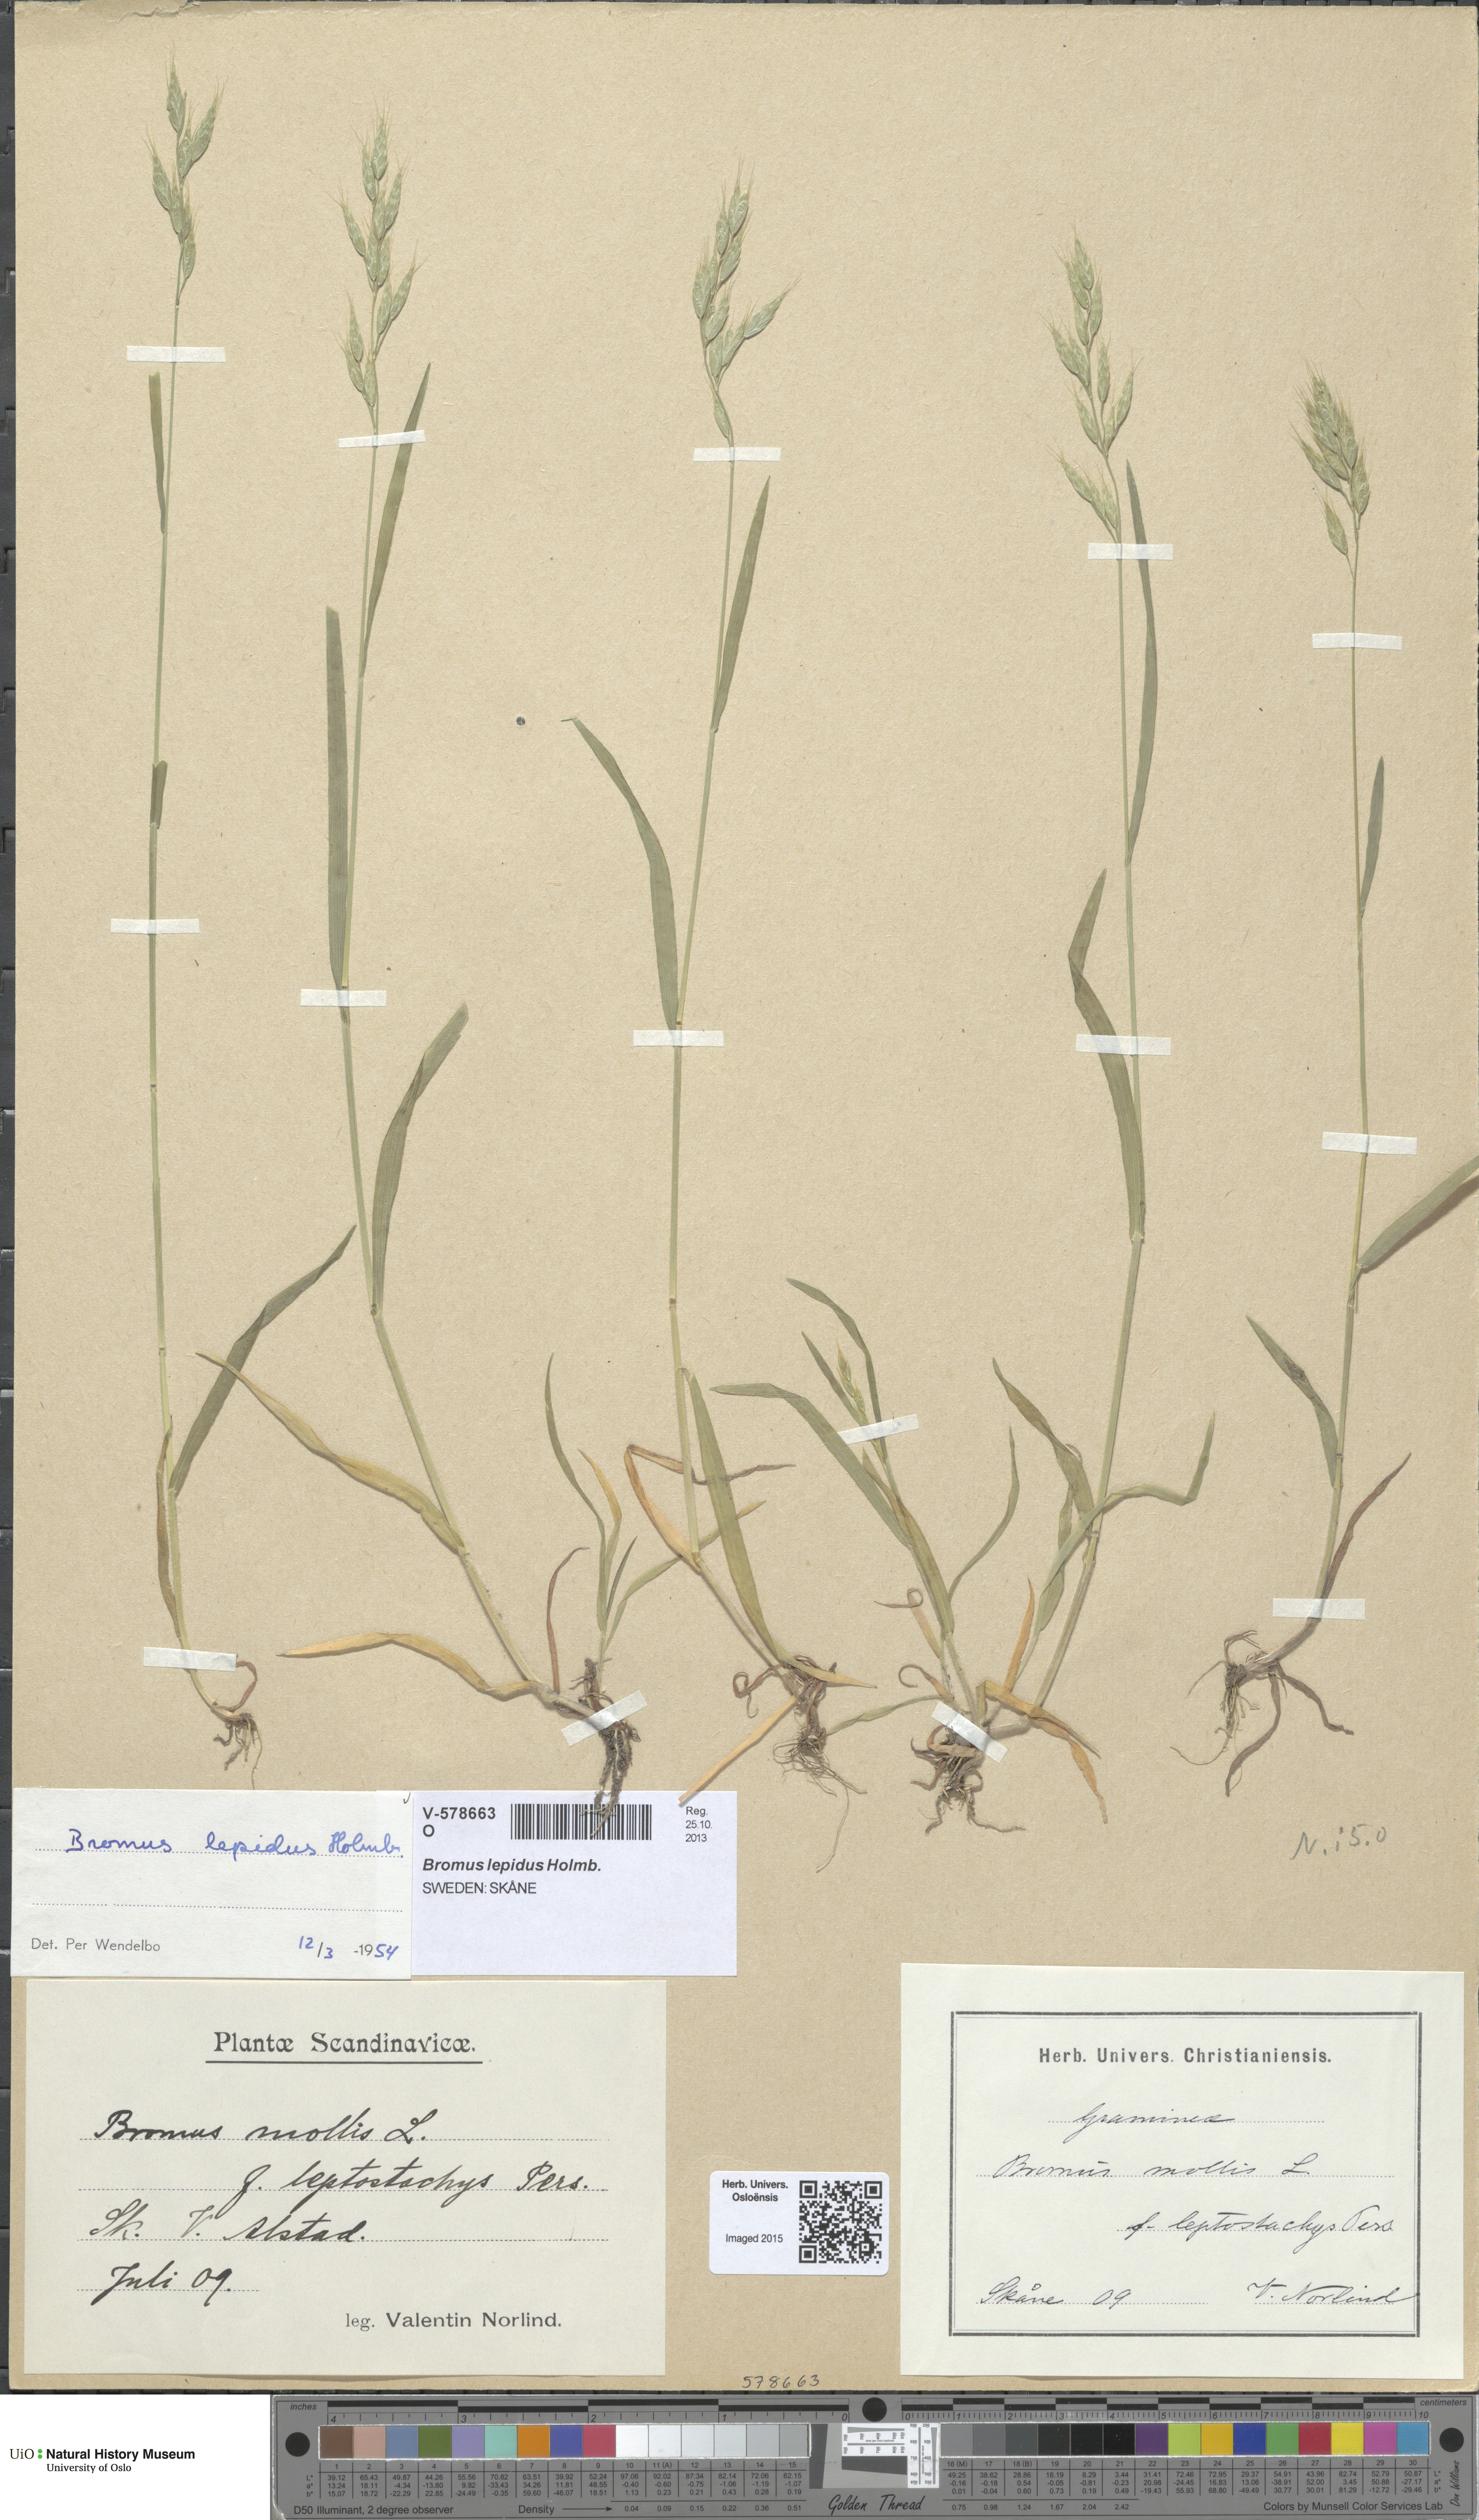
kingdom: Plantae
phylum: Tracheophyta
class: Liliopsida
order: Poales
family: Poaceae
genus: Bromus
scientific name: Bromus lepidus
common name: Slender soft-brome
